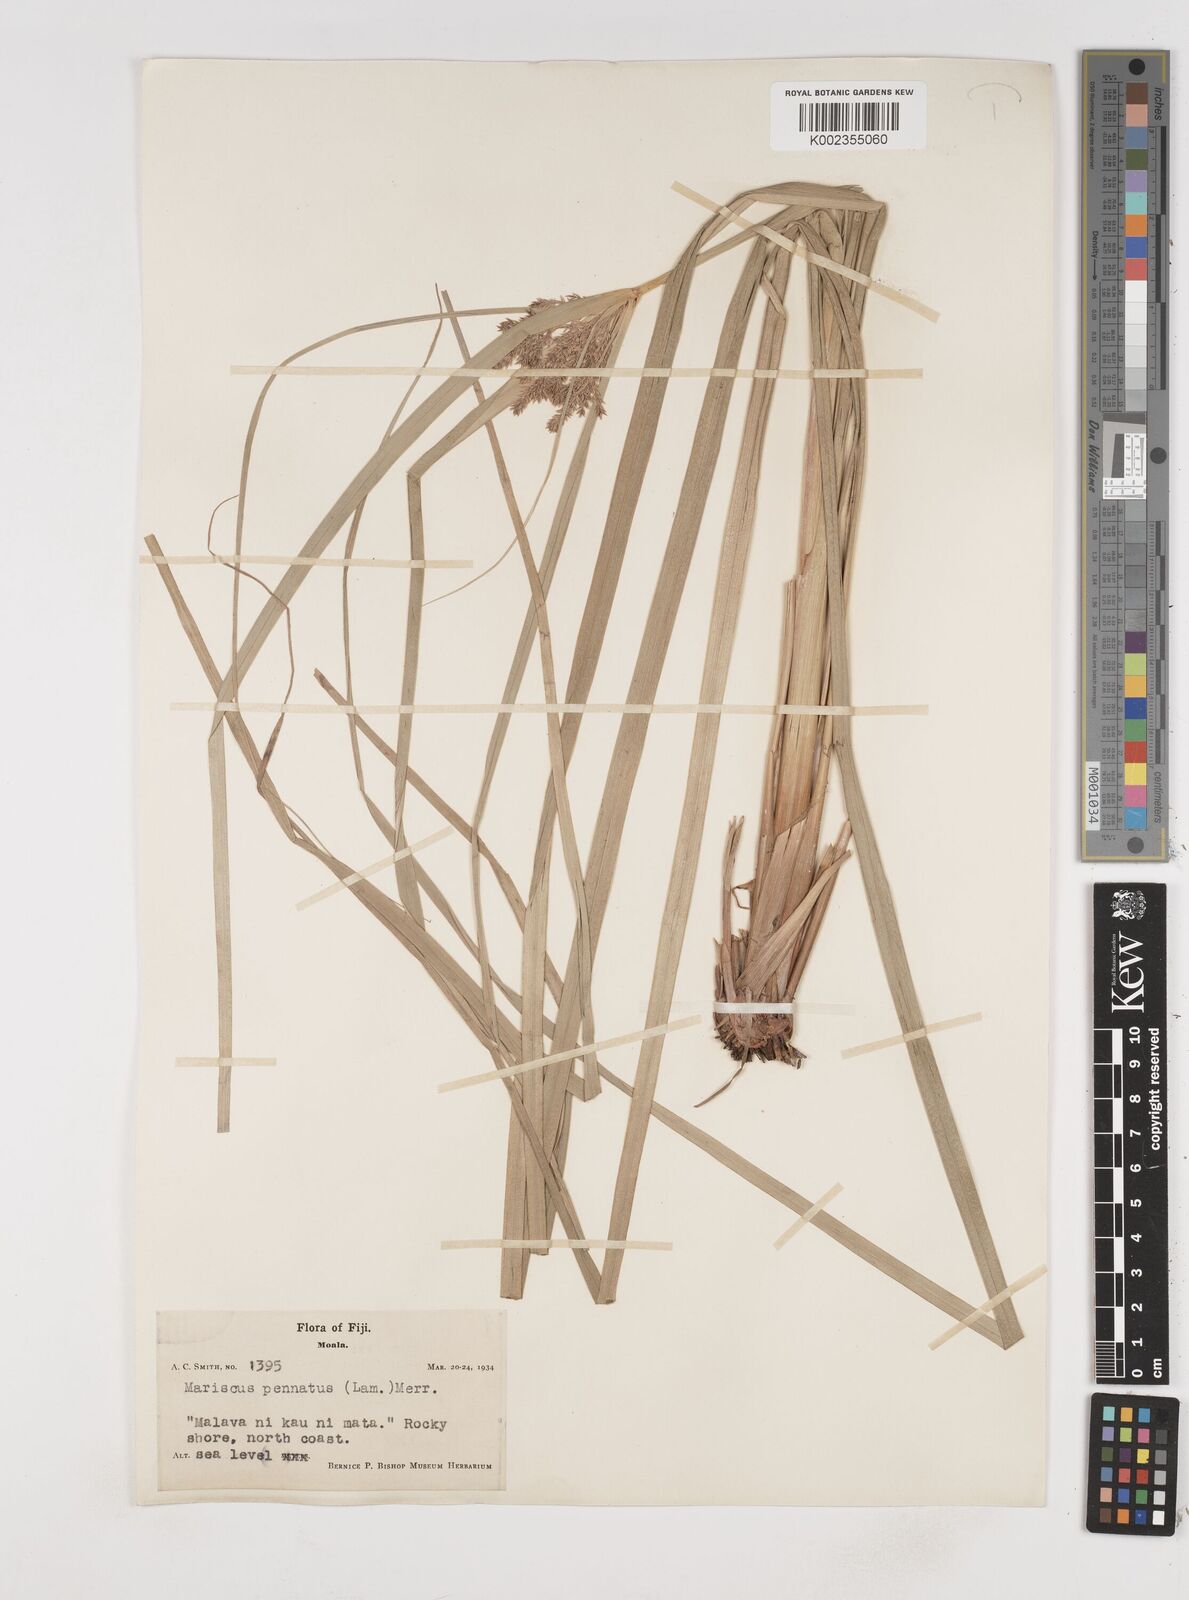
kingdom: Plantae
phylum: Tracheophyta
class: Liliopsida
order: Poales
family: Cyperaceae
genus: Cyperus
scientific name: Cyperus javanicus
